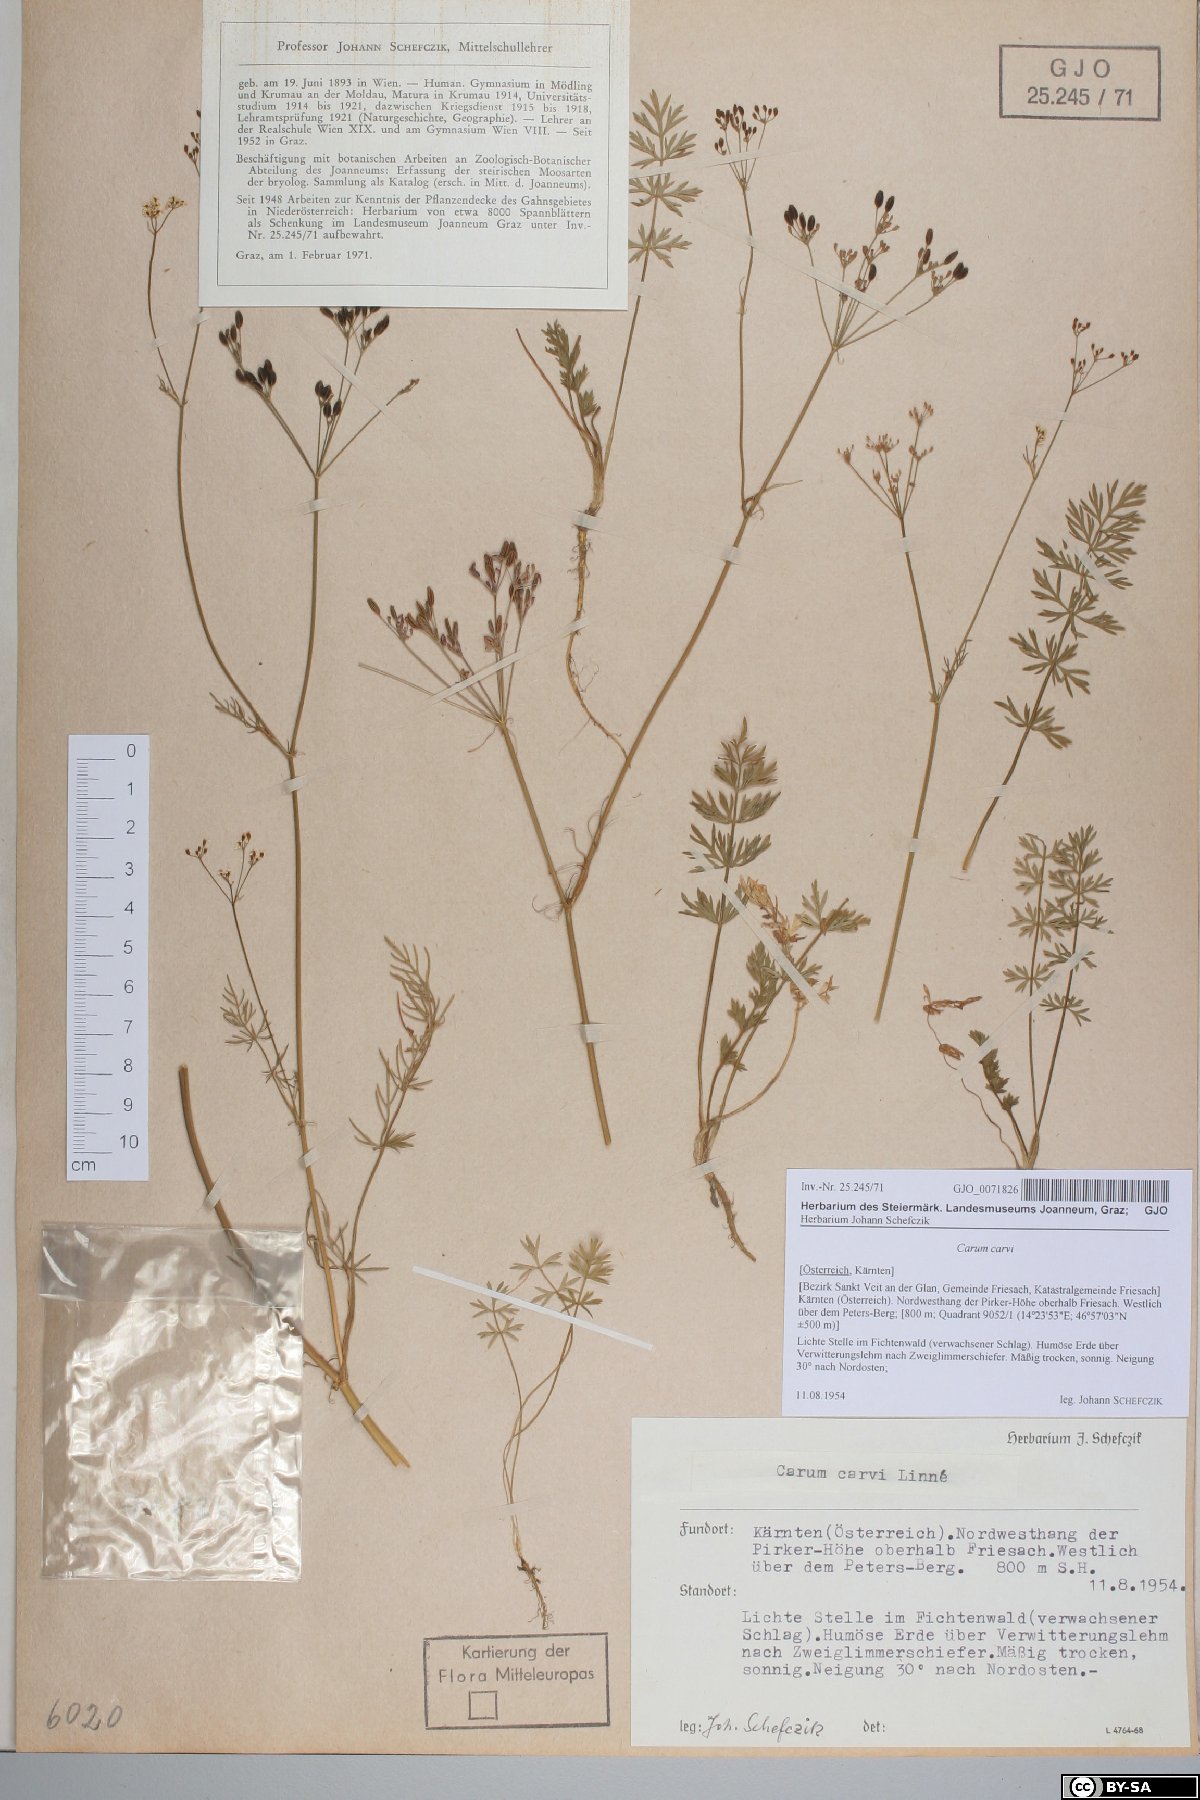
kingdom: Plantae
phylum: Tracheophyta
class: Magnoliopsida
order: Apiales
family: Apiaceae
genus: Carum
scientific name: Carum carvi
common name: Caraway
